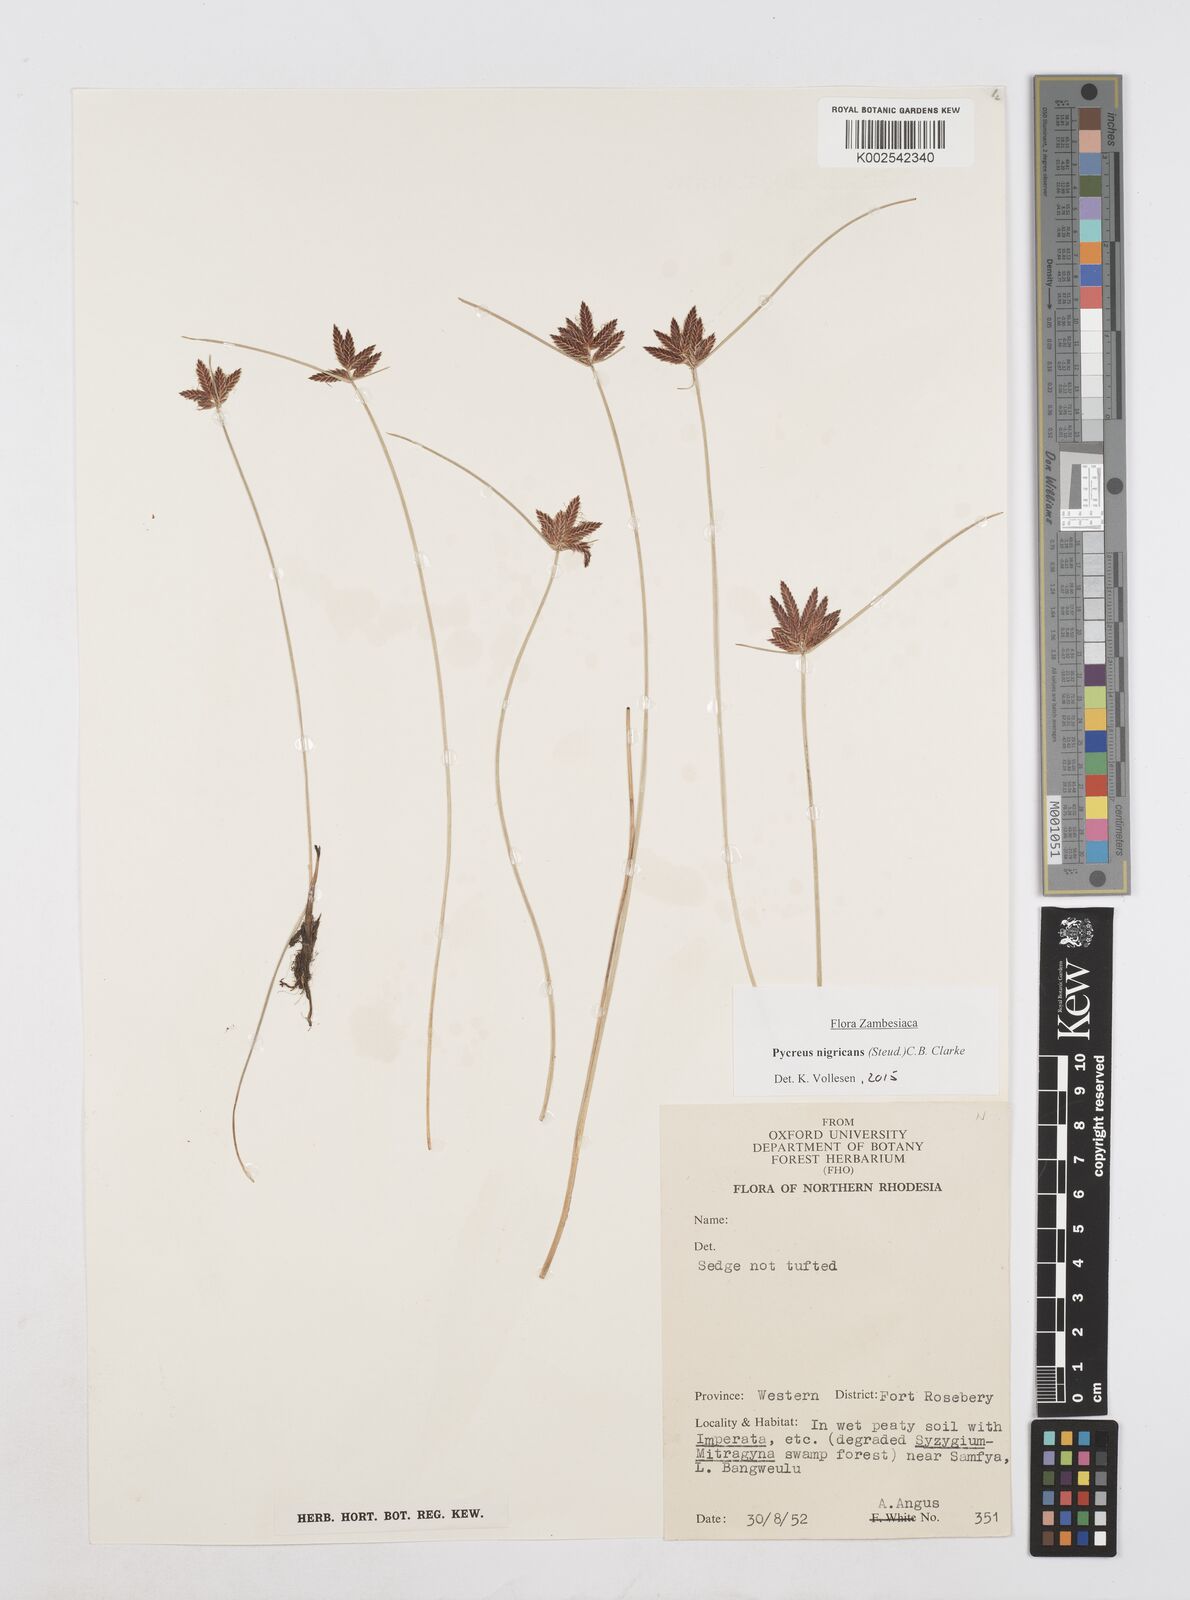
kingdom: Plantae
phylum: Tracheophyta
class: Liliopsida
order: Poales
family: Cyperaceae
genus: Cyperus
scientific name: Cyperus nigricans
